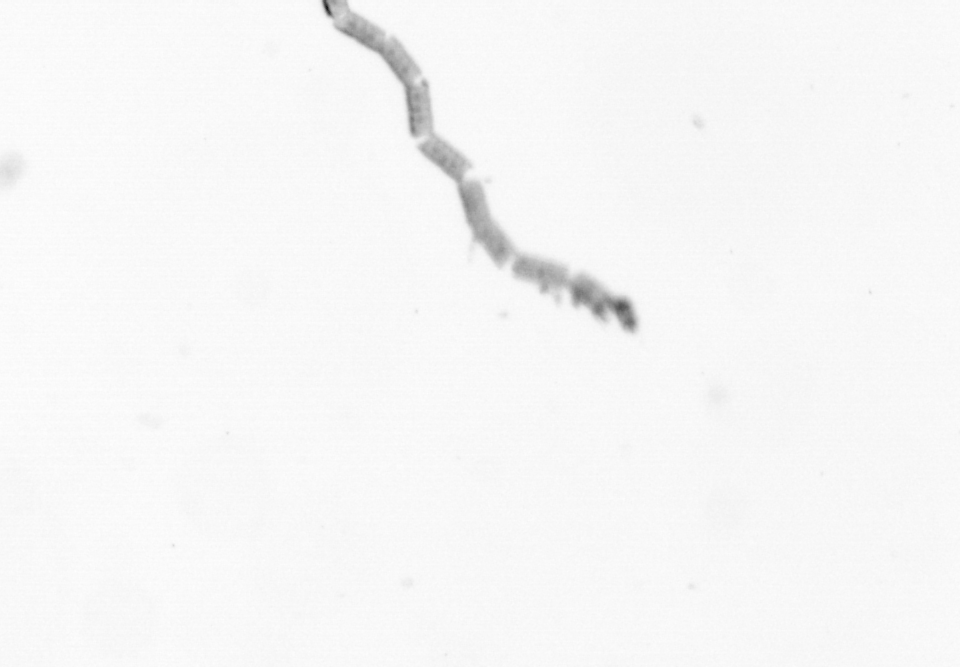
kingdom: Chromista
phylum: Ochrophyta
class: Bacillariophyceae
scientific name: Bacillariophyceae
